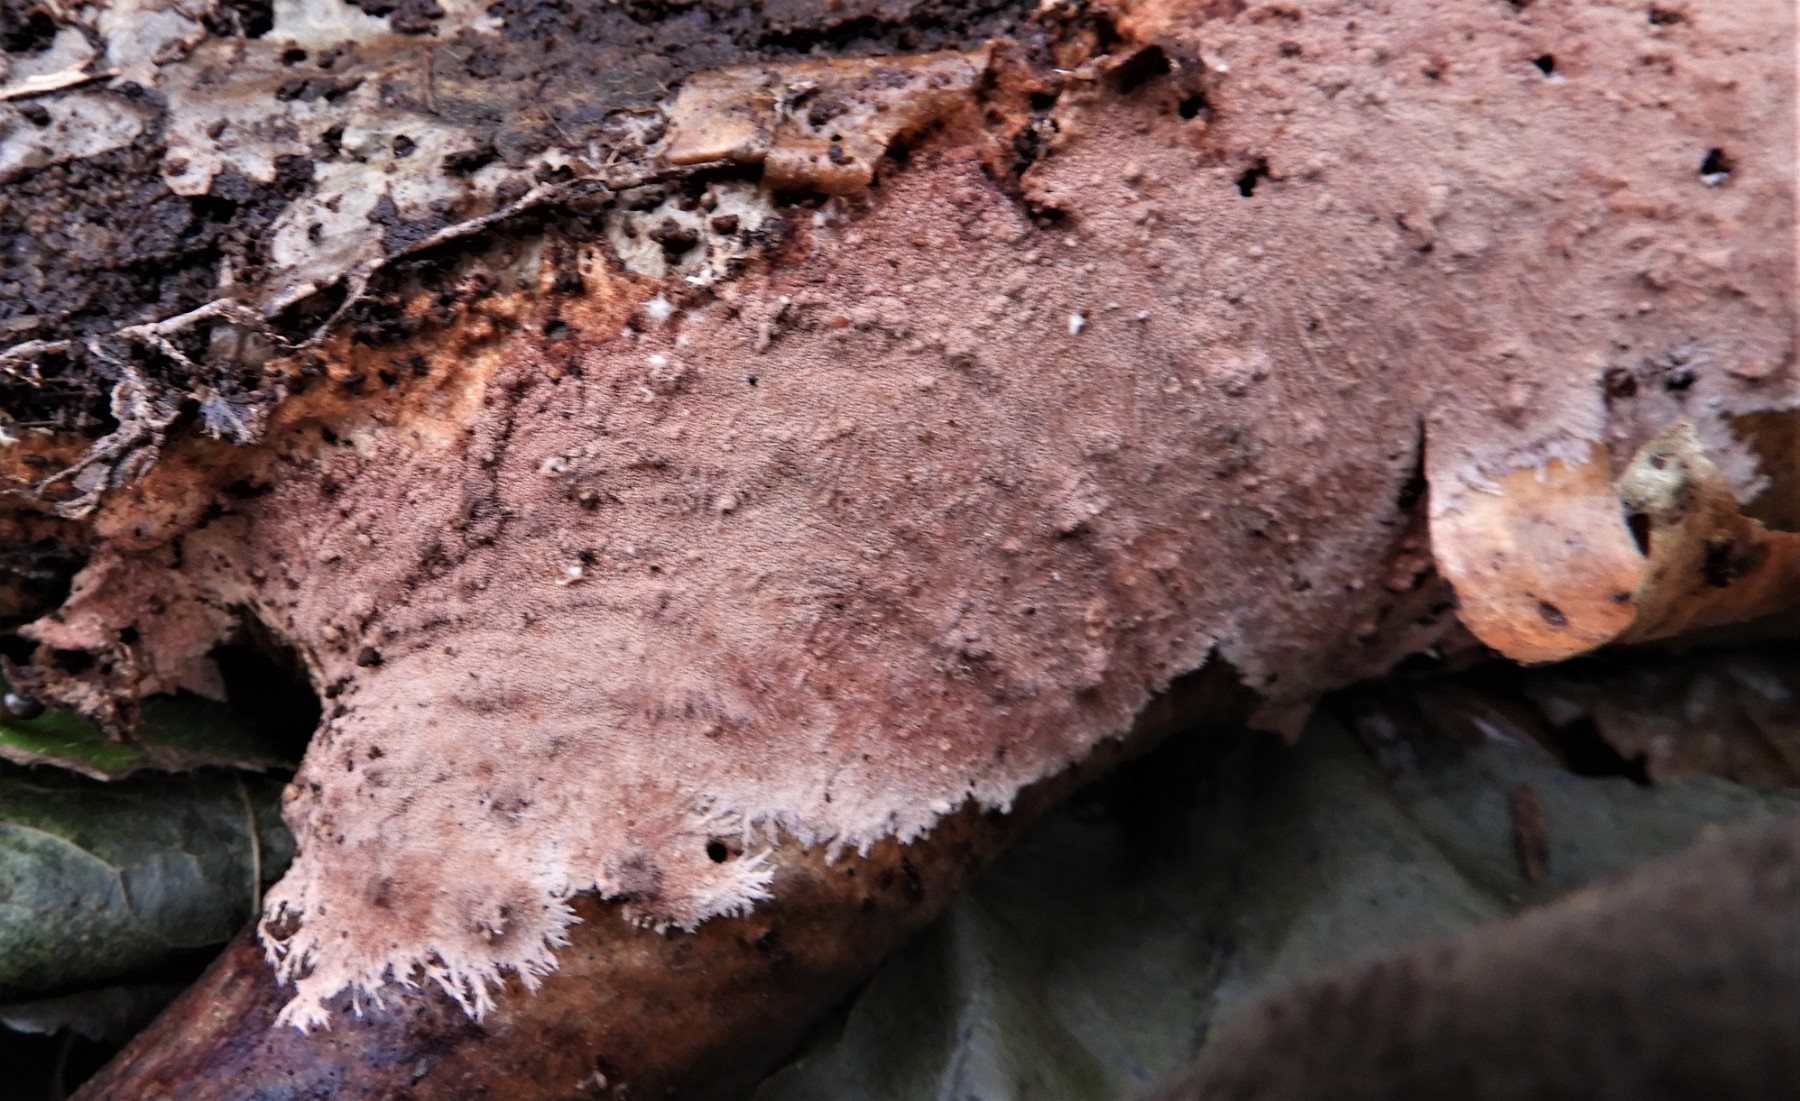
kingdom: Fungi
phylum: Basidiomycota
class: Agaricomycetes
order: Polyporales
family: Steccherinaceae
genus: Steccherinum
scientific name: Steccherinum fimbriatum
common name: trådet skønpig
